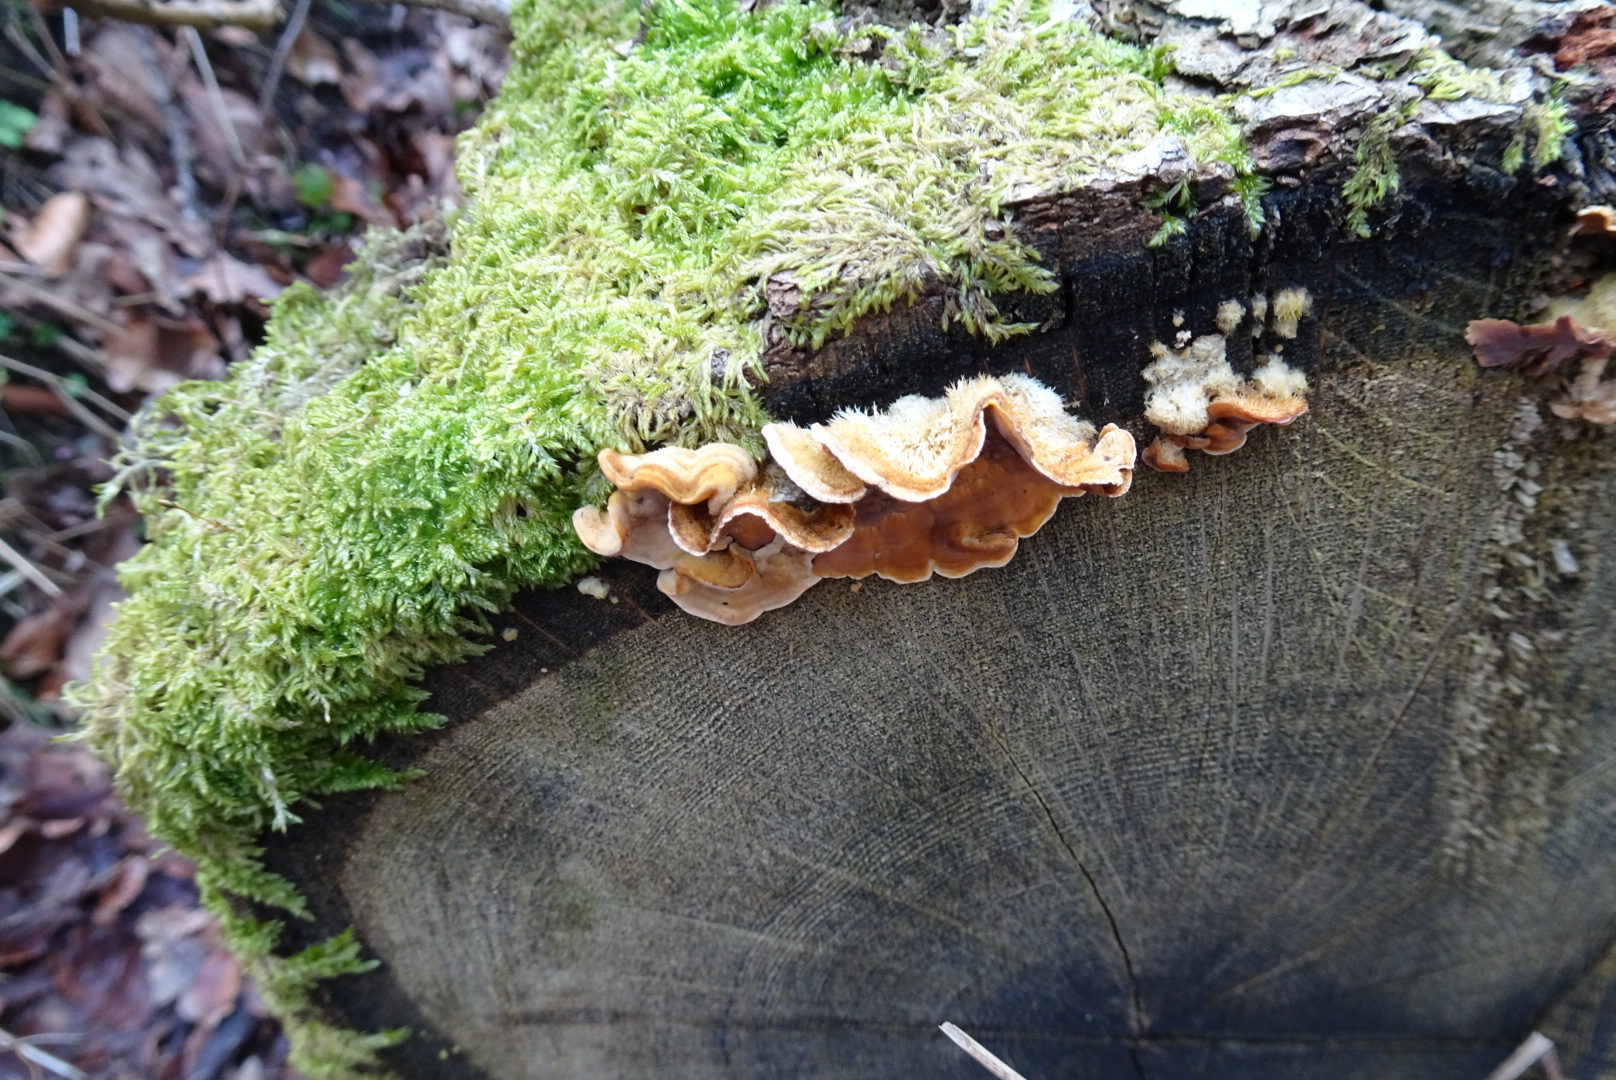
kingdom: Fungi
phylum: Basidiomycota
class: Agaricomycetes
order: Polyporales
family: Polyporaceae
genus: Trametes
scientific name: Trametes hirsuta
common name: håret læderporesvamp
